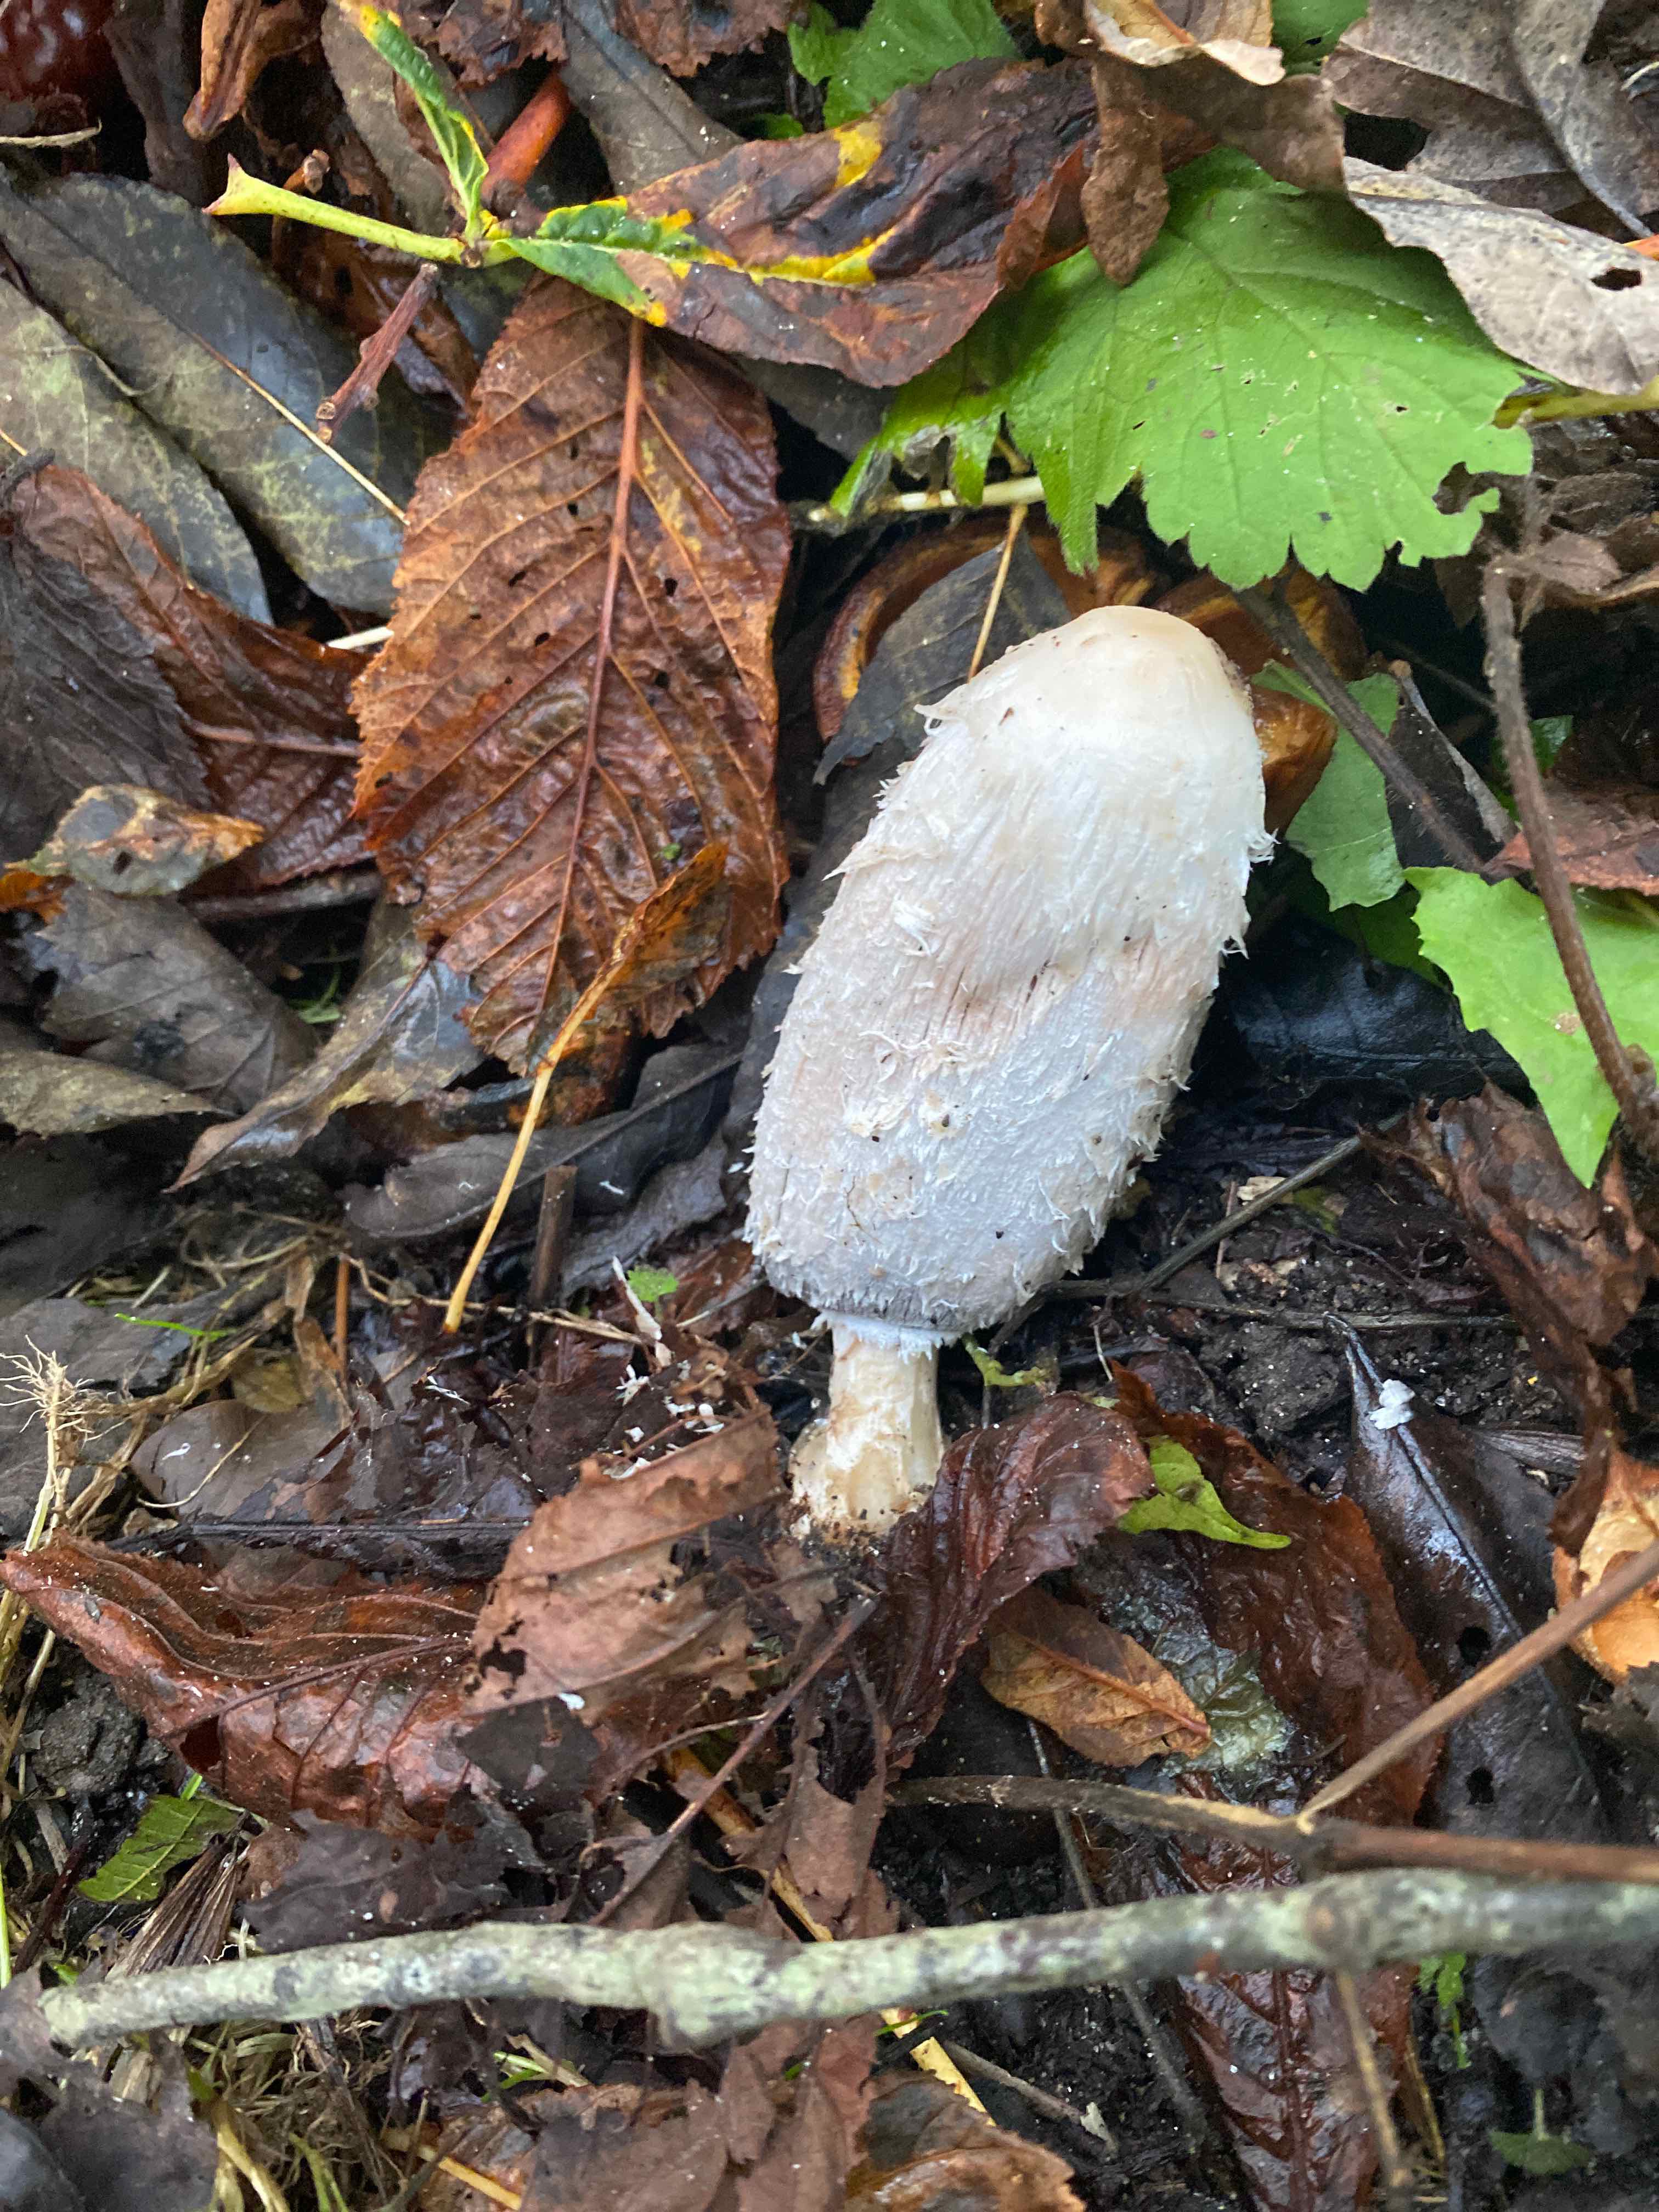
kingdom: Fungi
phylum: Basidiomycota
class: Agaricomycetes
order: Agaricales
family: Agaricaceae
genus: Coprinus
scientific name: Coprinus comatus
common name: stor parykhat
